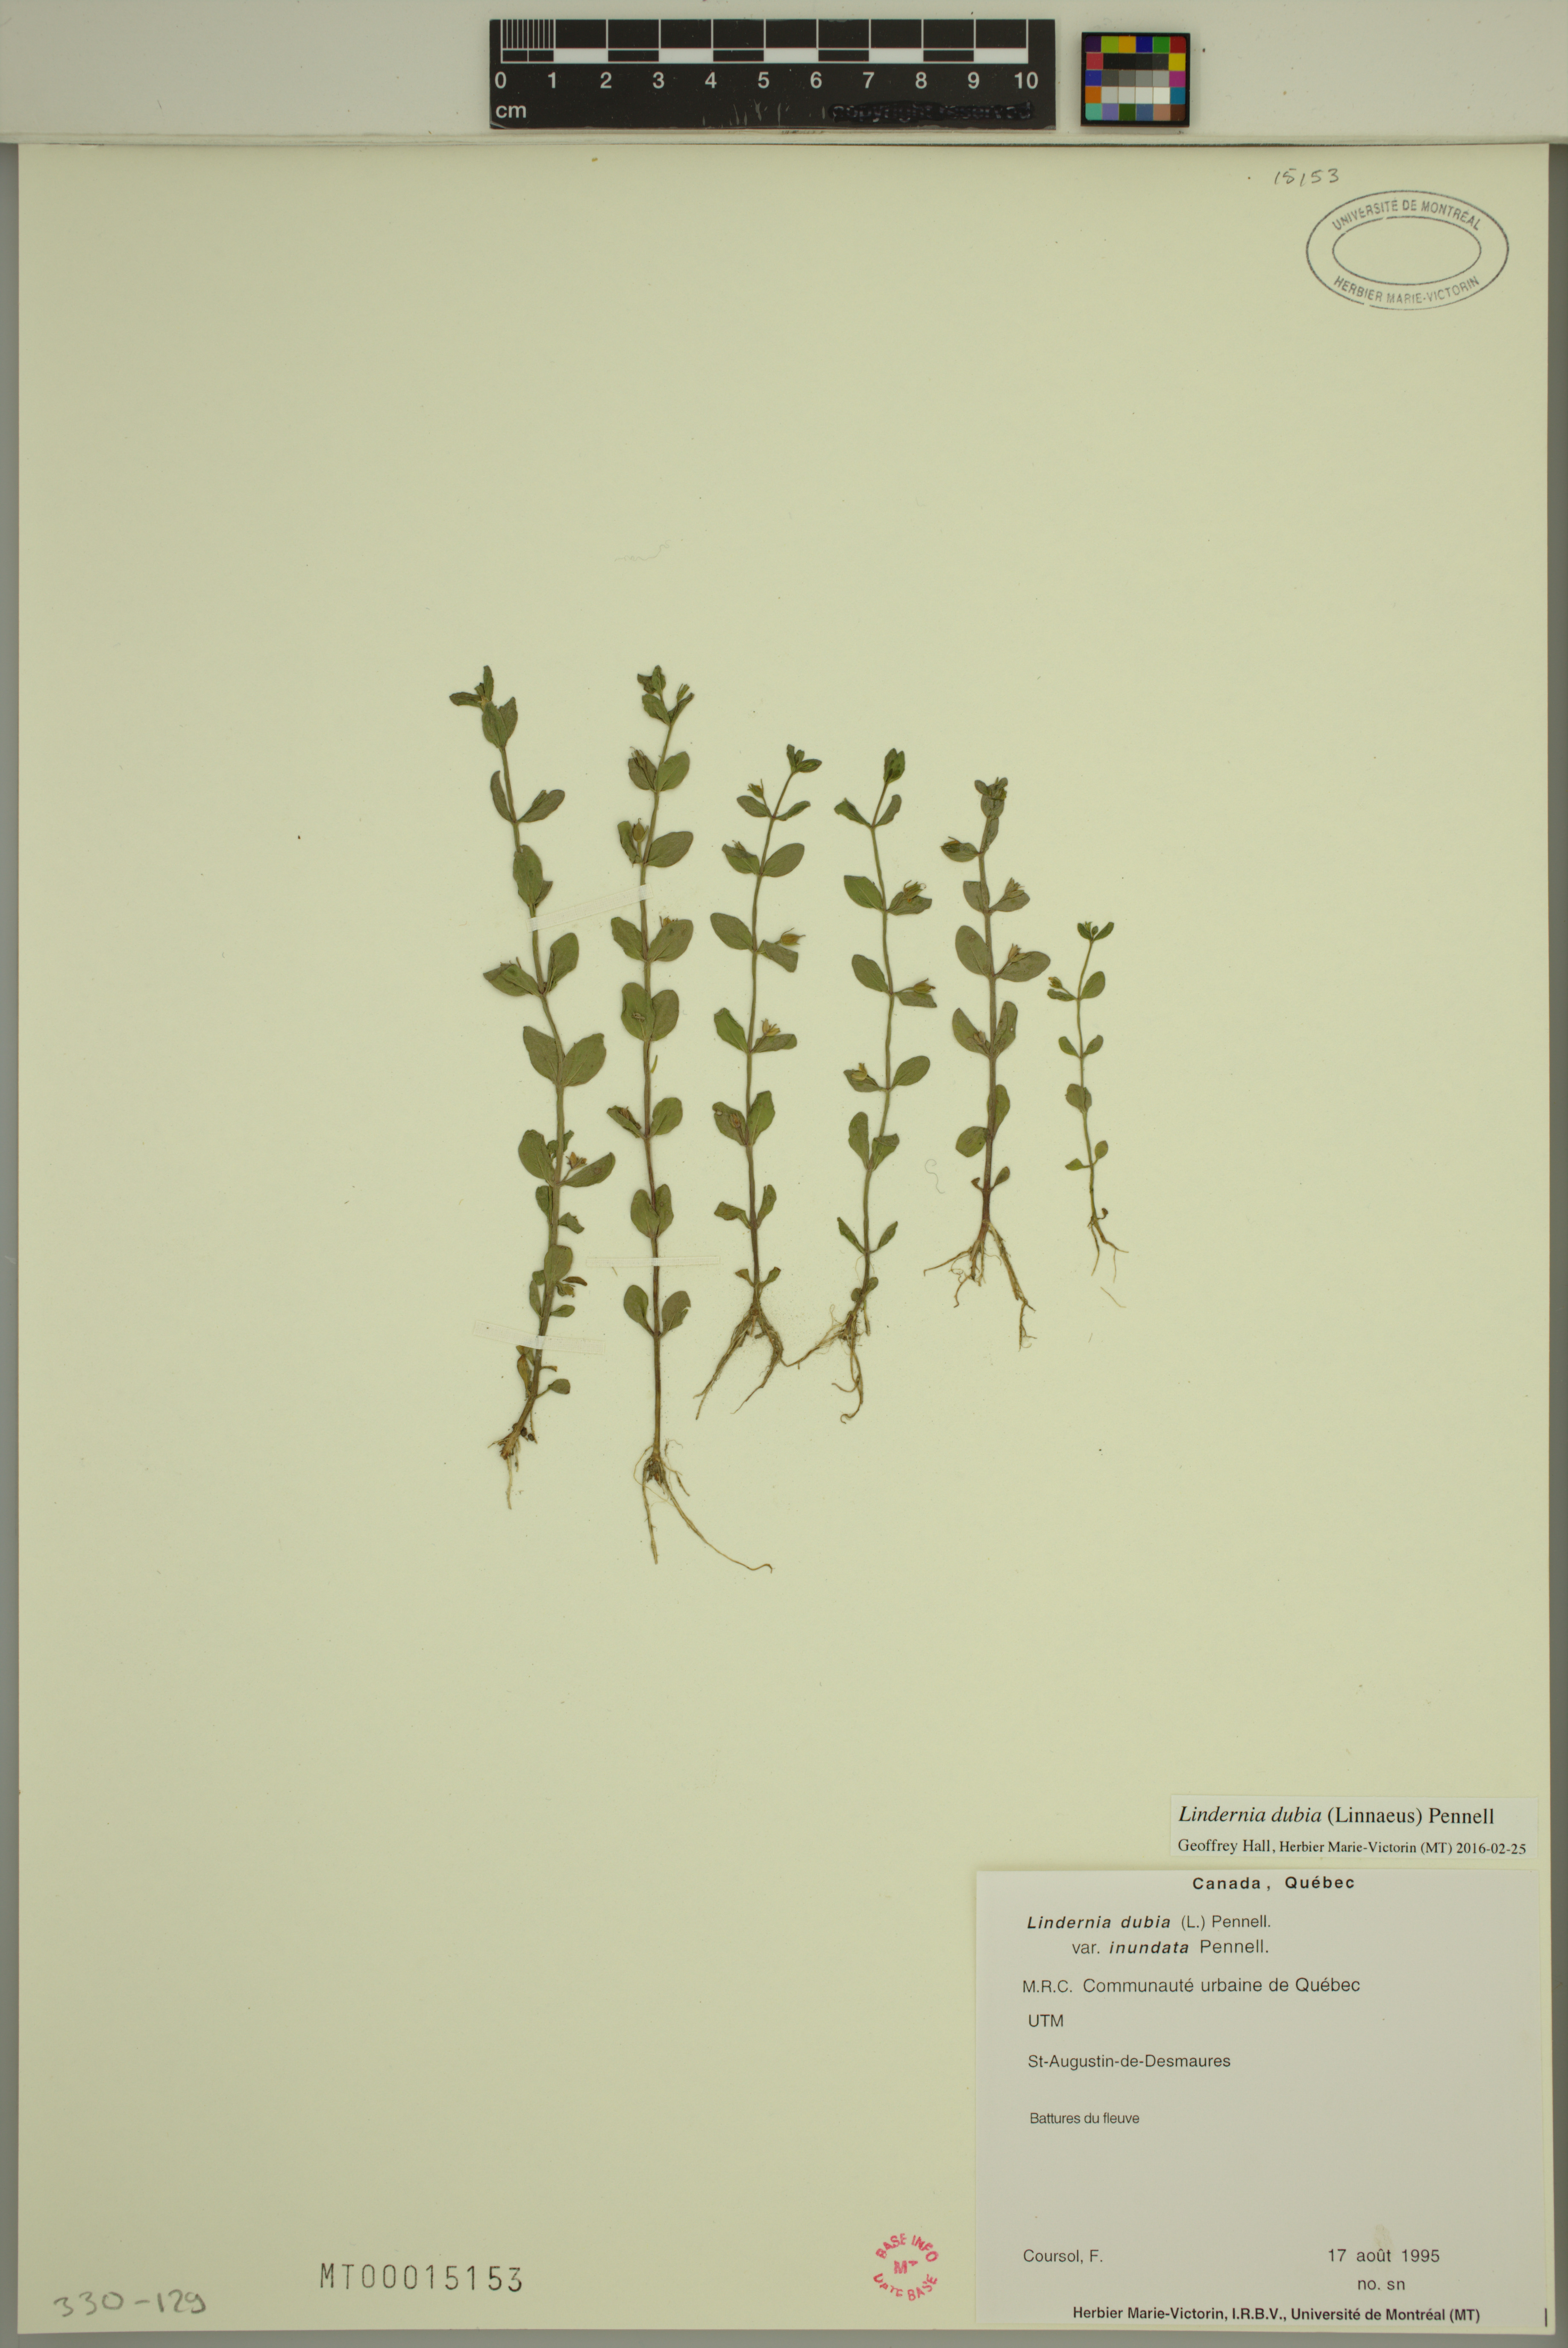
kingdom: Plantae
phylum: Tracheophyta
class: Magnoliopsida
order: Lamiales
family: Linderniaceae
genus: Lindernia
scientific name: Lindernia dubia
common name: Annual false pimpernel
